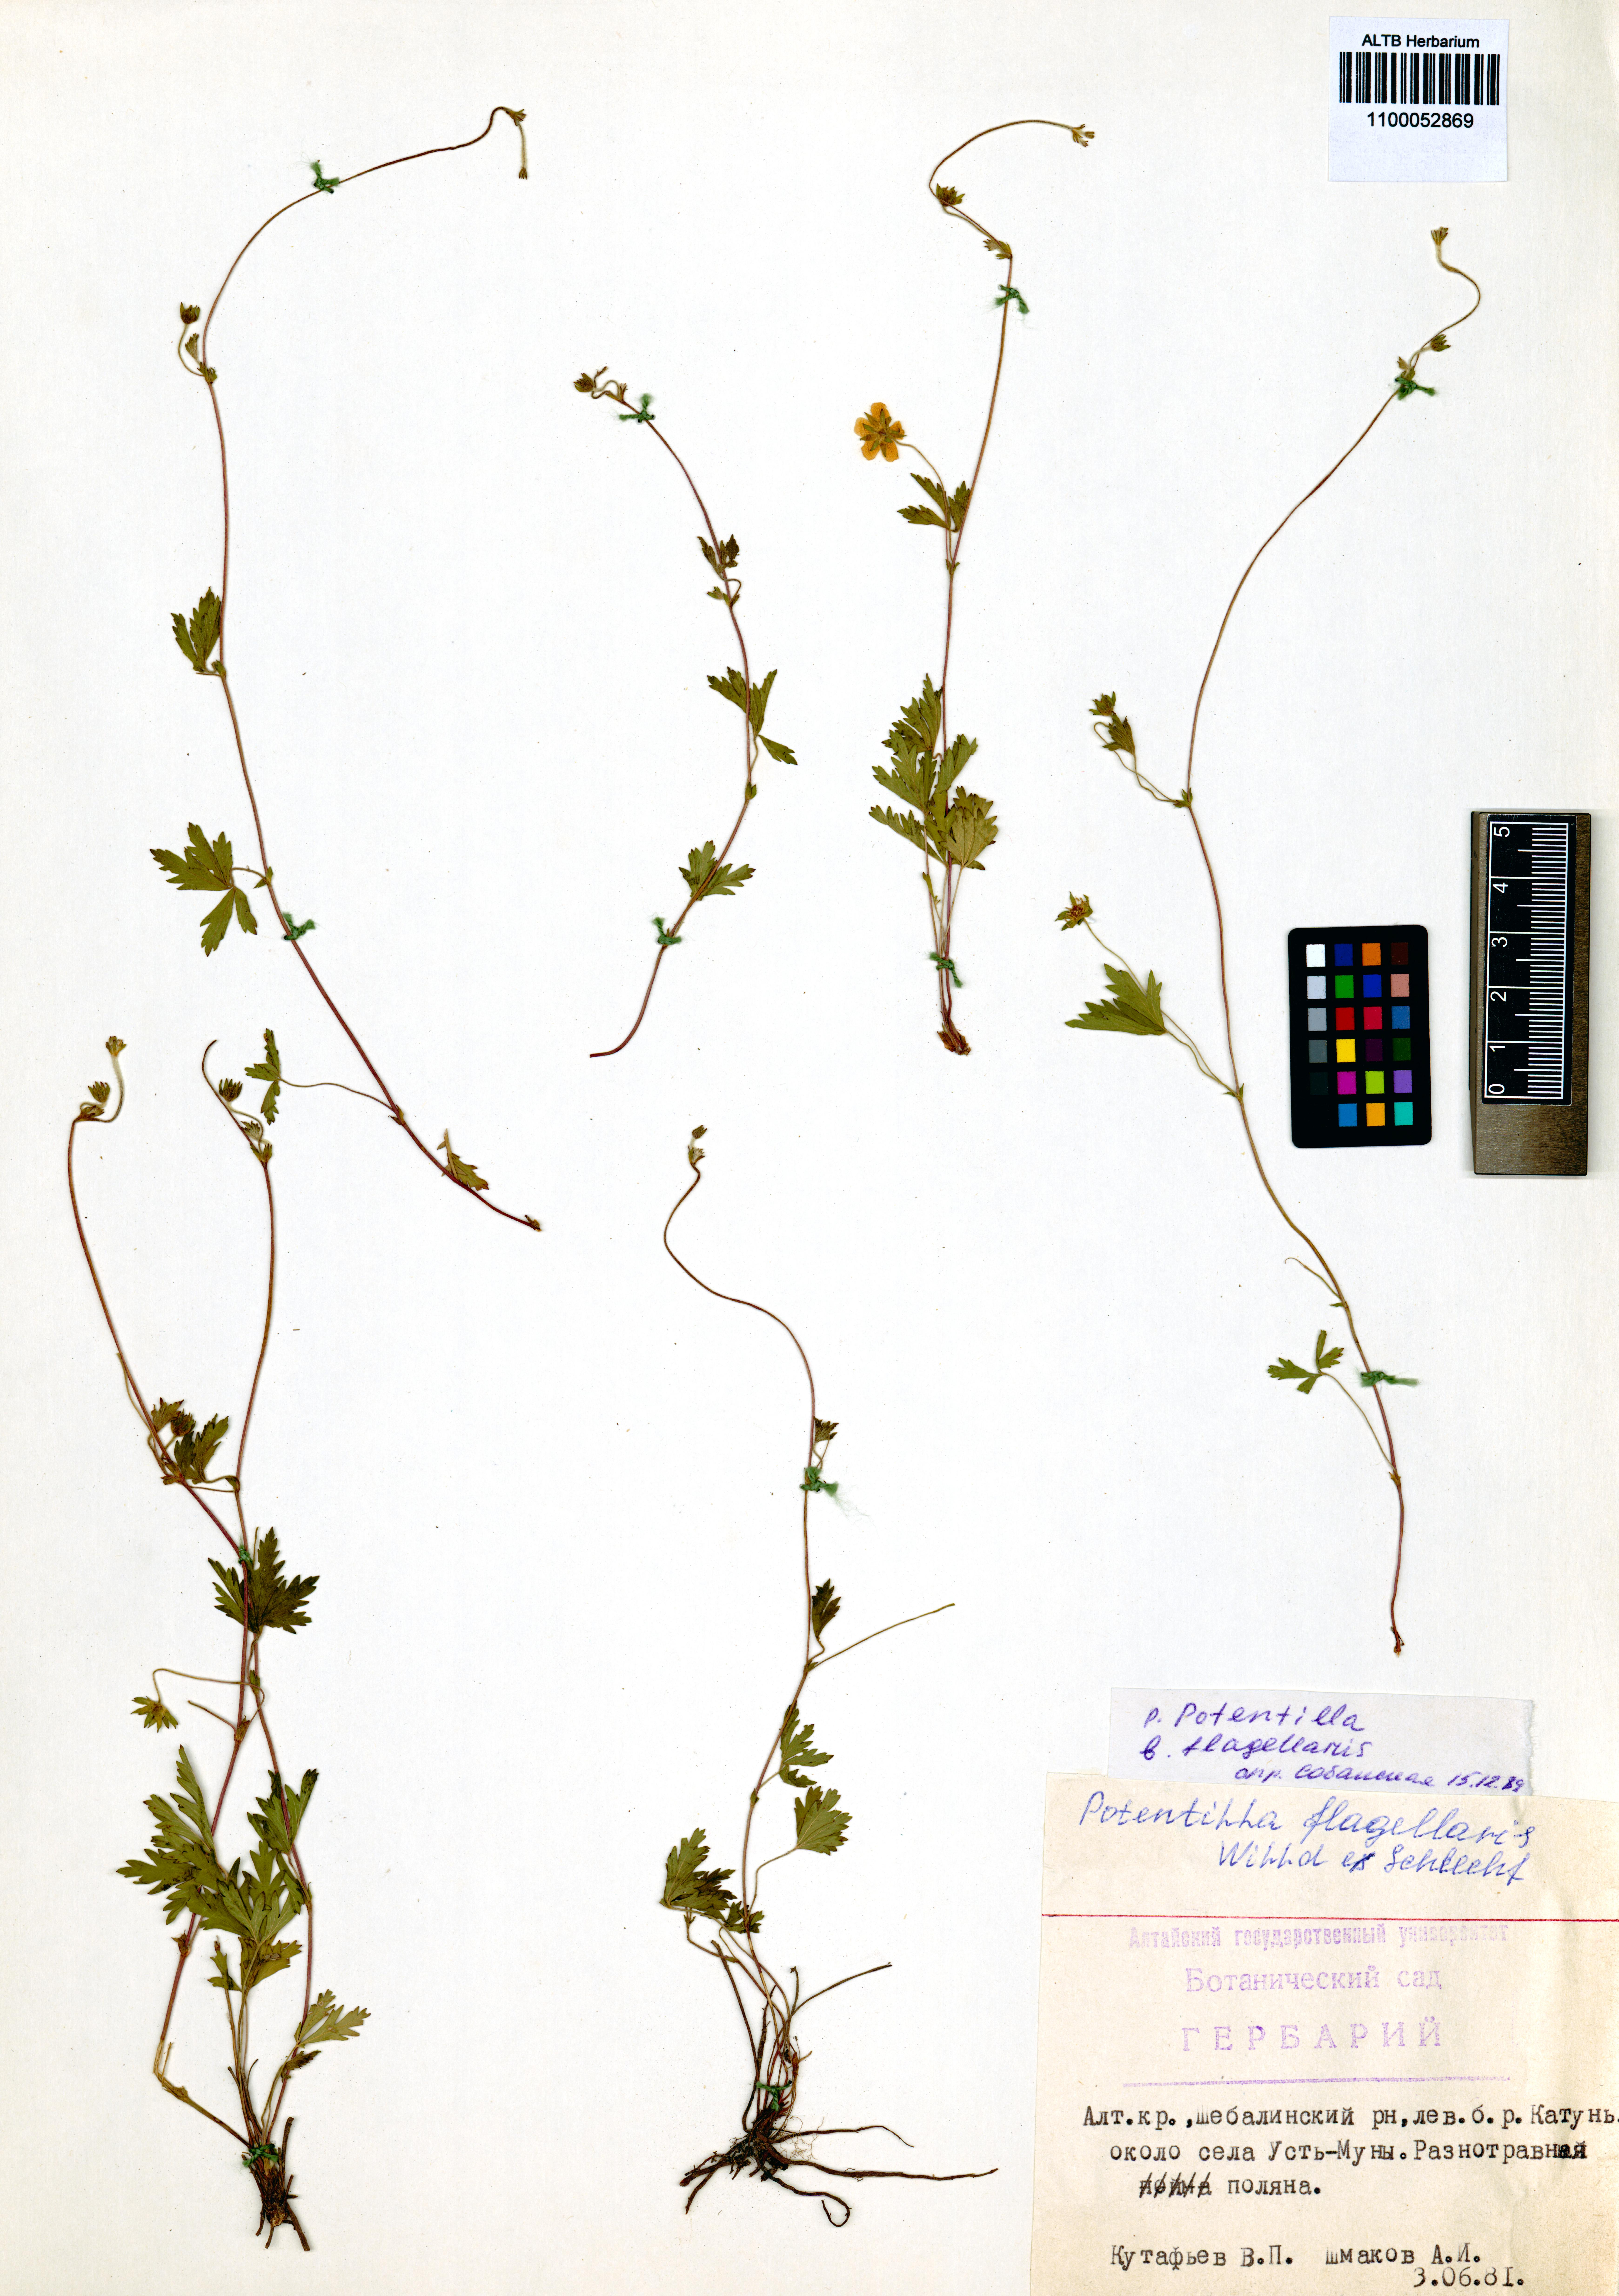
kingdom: Plantae
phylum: Tracheophyta
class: Magnoliopsida
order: Rosales
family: Rosaceae
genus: Potentilla
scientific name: Potentilla flagellaris
